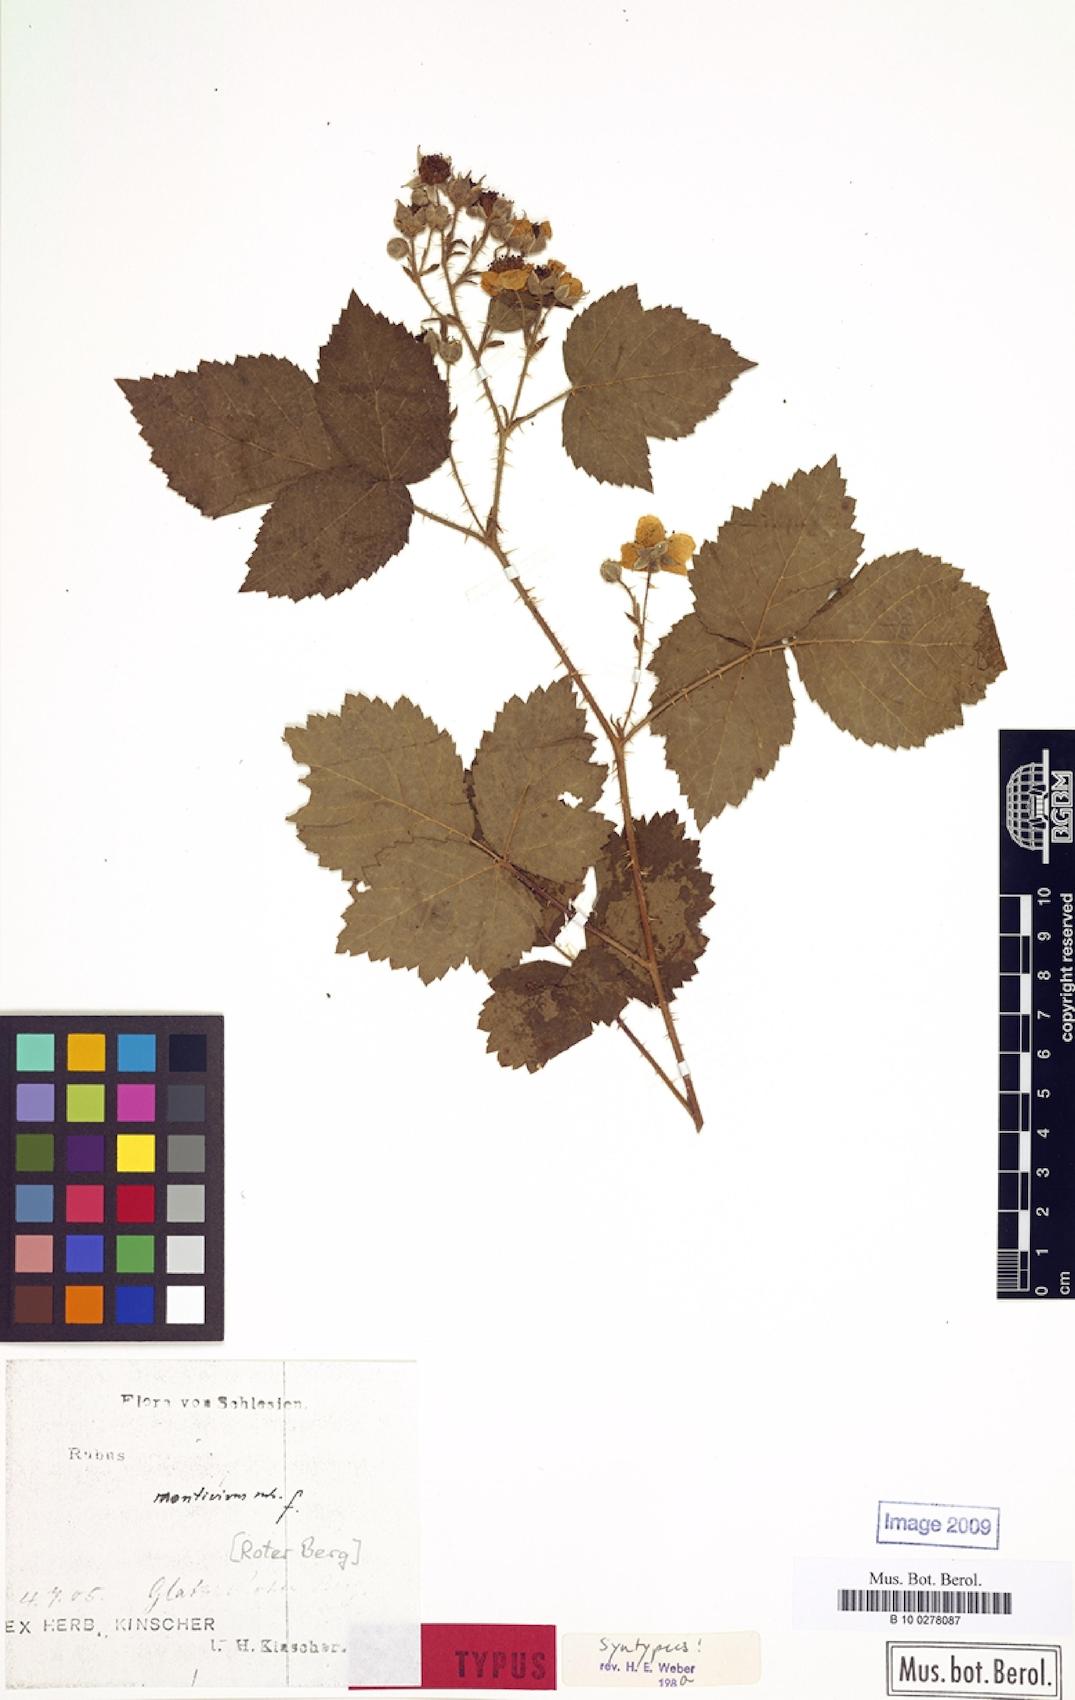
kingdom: Plantae
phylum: Tracheophyta
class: Magnoliopsida
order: Rosales
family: Rosaceae
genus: Rubus
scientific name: Rubus dollnensis
